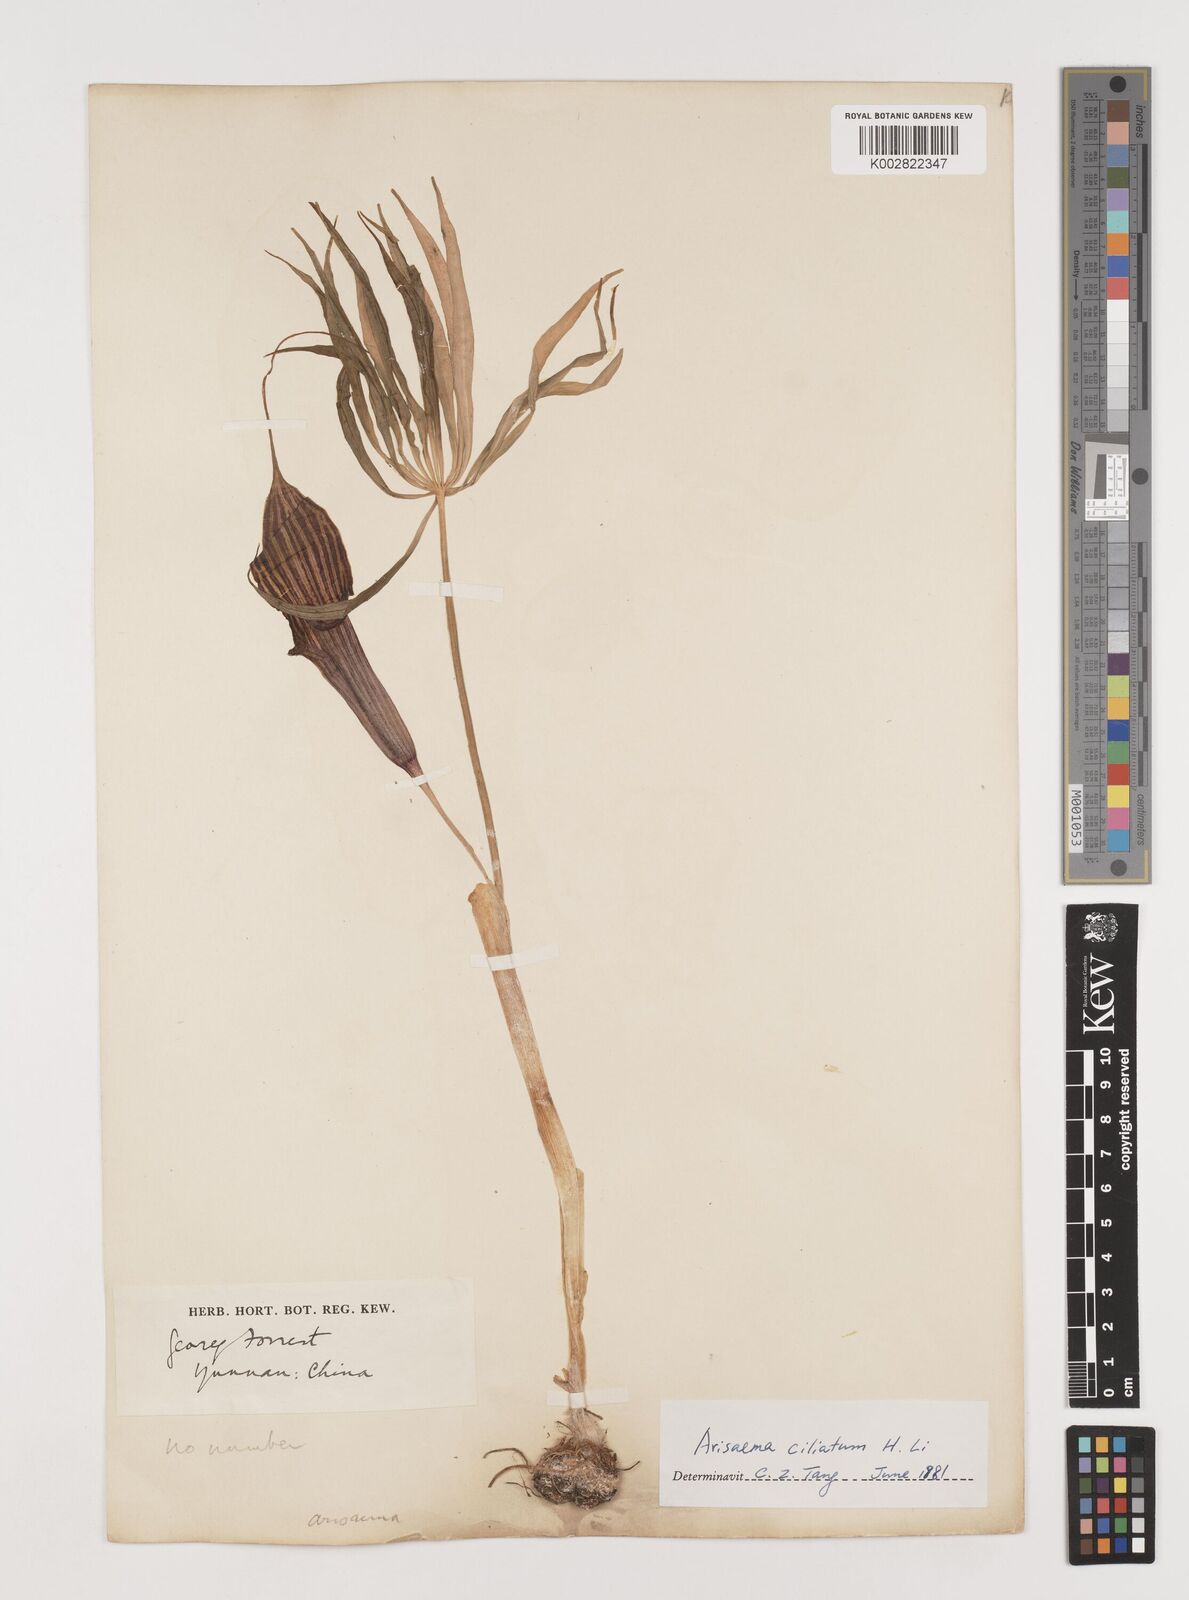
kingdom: Plantae
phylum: Tracheophyta
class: Liliopsida
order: Alismatales
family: Araceae
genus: Arisaema
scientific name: Arisaema ciliatum
